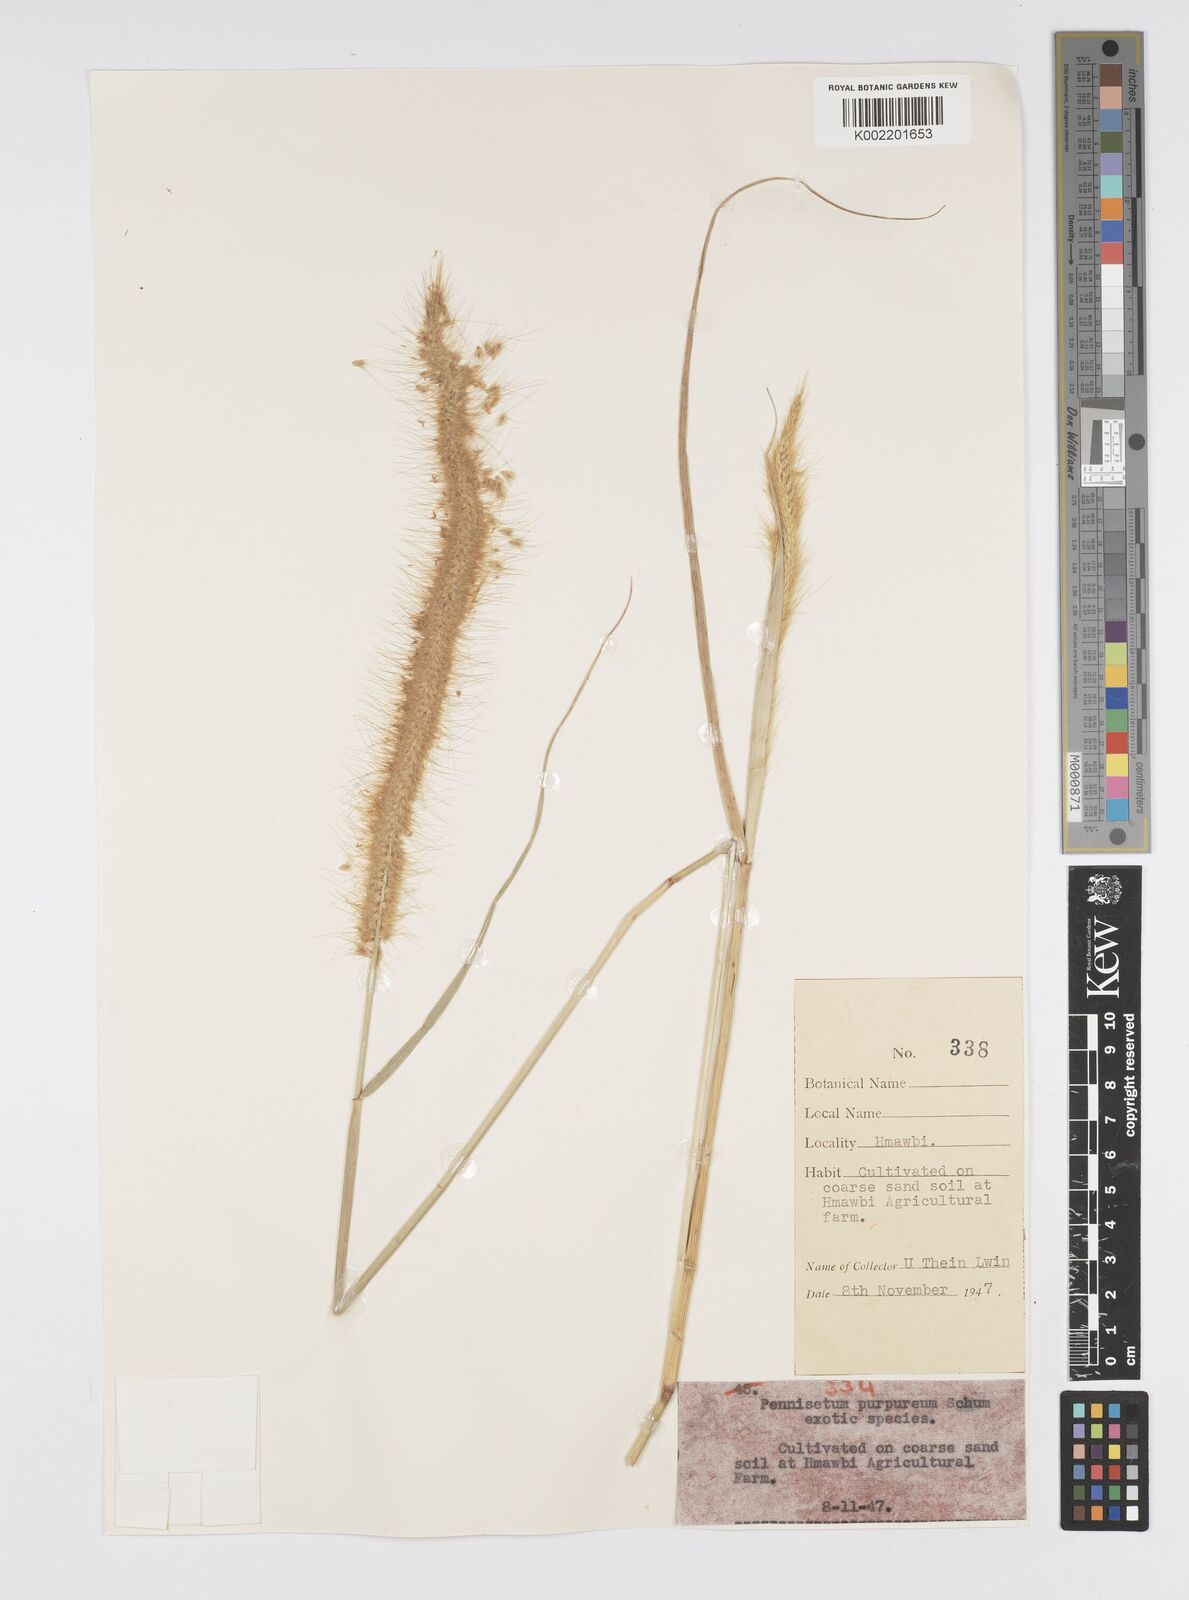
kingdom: Plantae
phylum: Tracheophyta
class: Liliopsida
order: Poales
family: Poaceae
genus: Setaria
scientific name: Setaria parviflora
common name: Knotroot bristle-grass
